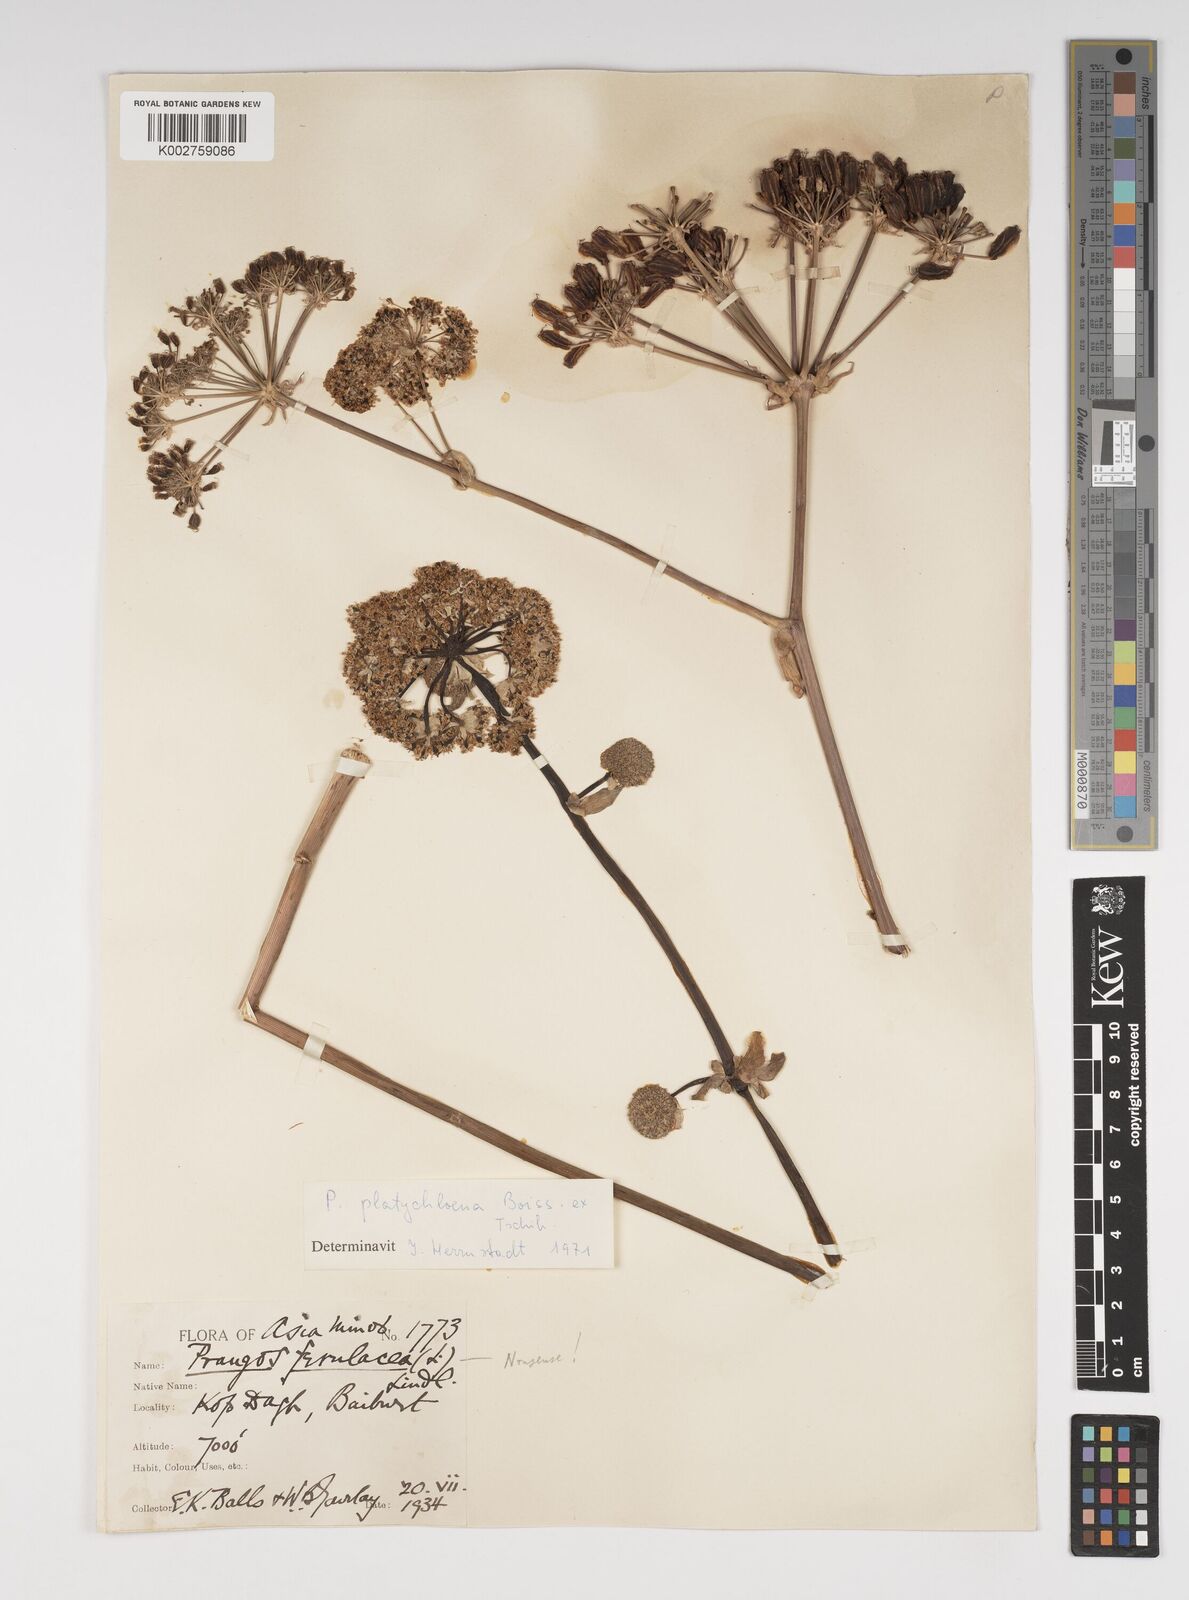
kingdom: Plantae
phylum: Tracheophyta
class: Magnoliopsida
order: Apiales
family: Apiaceae
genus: Prangos
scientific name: Prangos platychlaena
